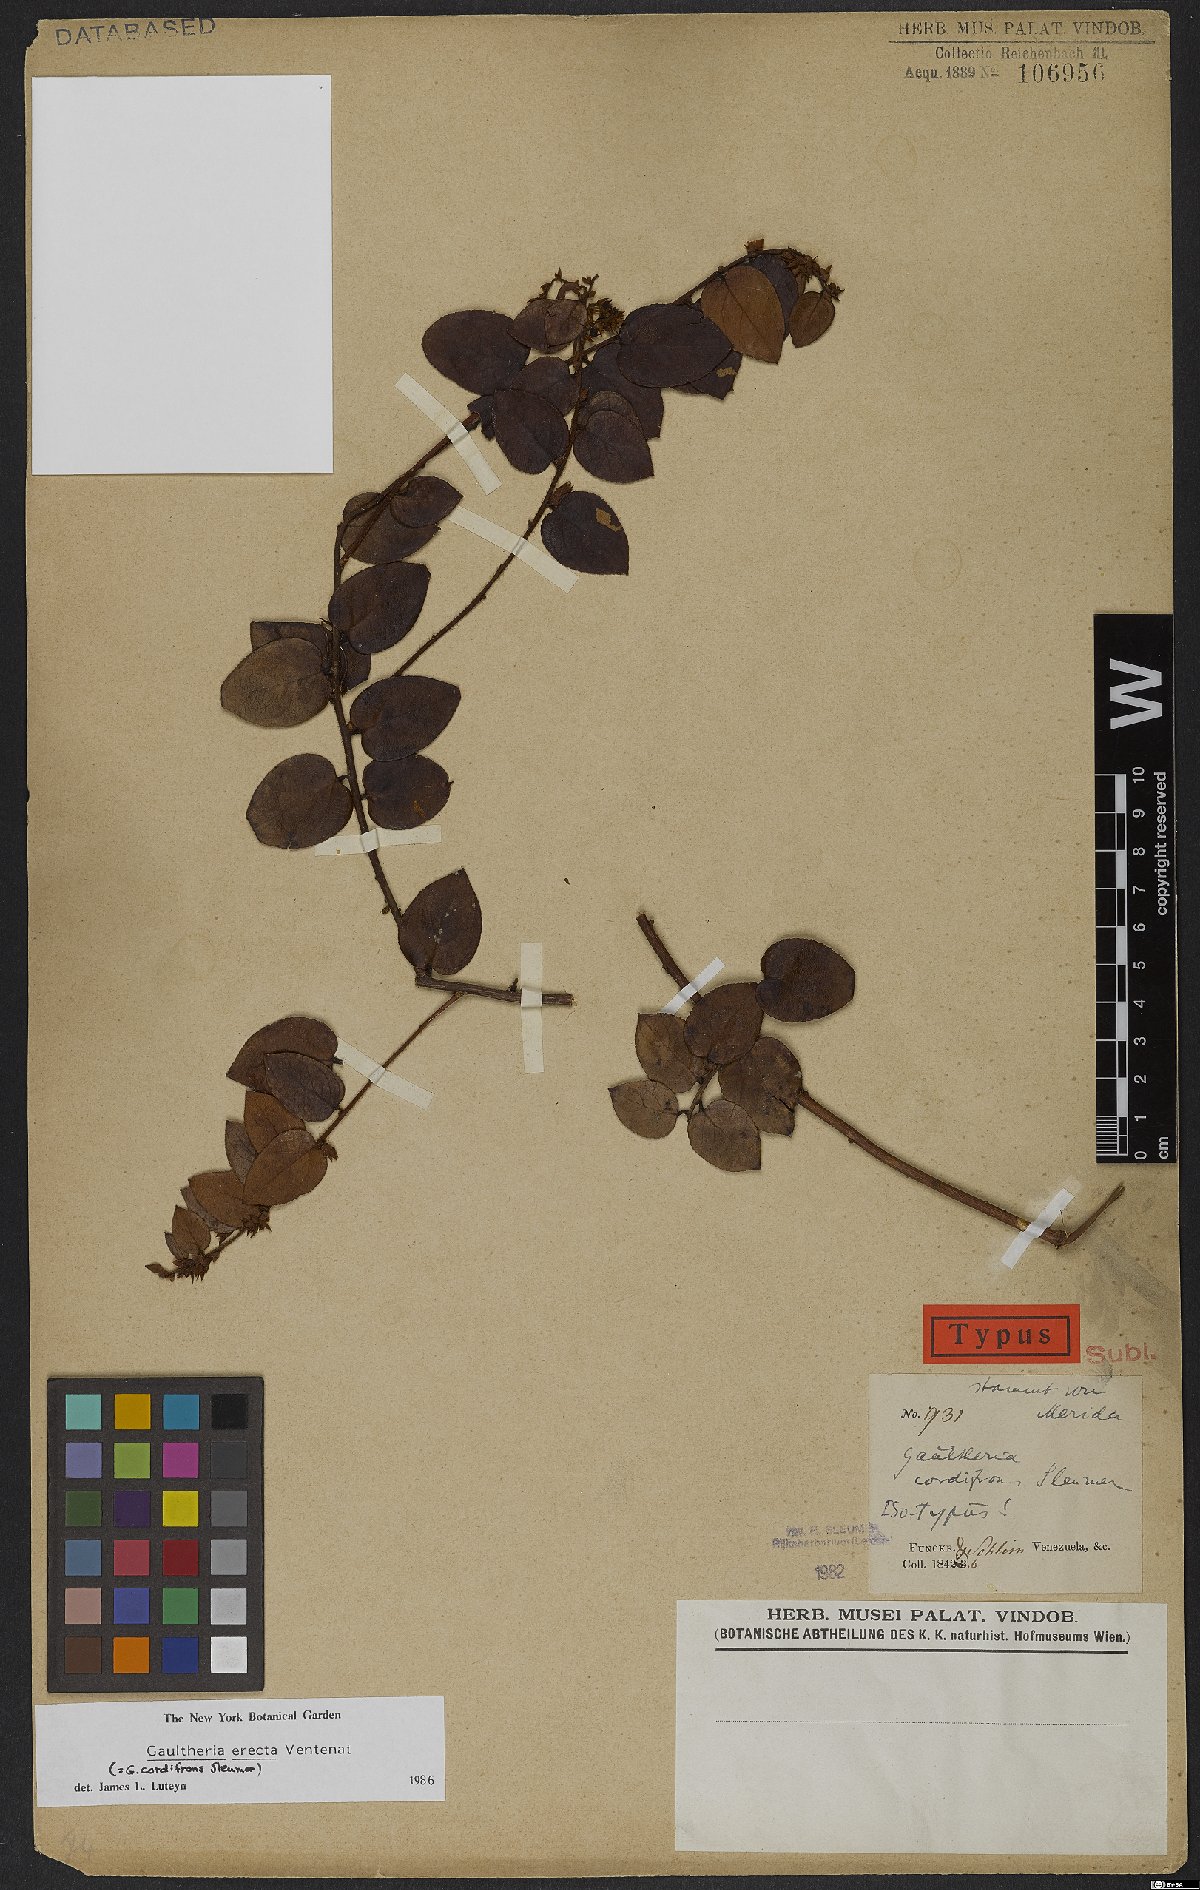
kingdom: Plantae
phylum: Tracheophyta
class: Magnoliopsida
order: Ericales
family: Ericaceae
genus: Gaultheria
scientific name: Gaultheria erecta
